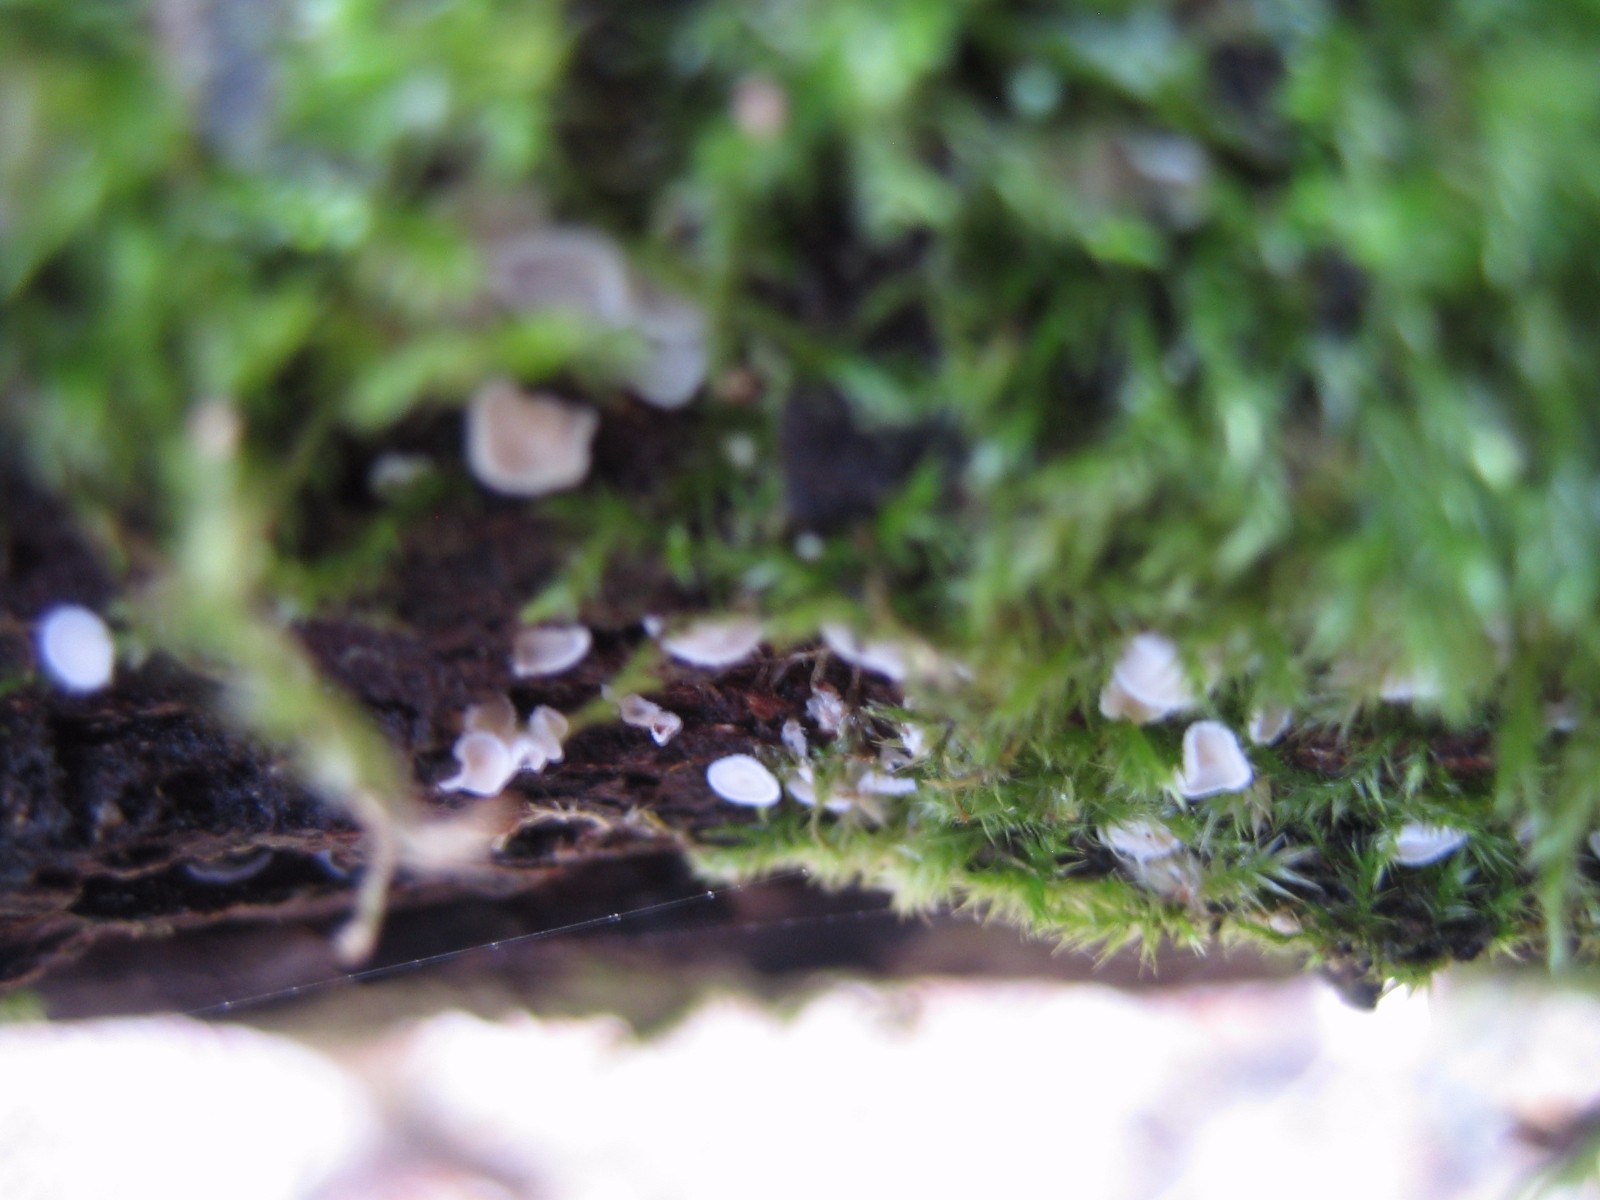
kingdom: Fungi
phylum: Ascomycota
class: Leotiomycetes
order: Helotiales
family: Lachnaceae
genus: Lachnum
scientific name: Lachnum
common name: frynseskive
